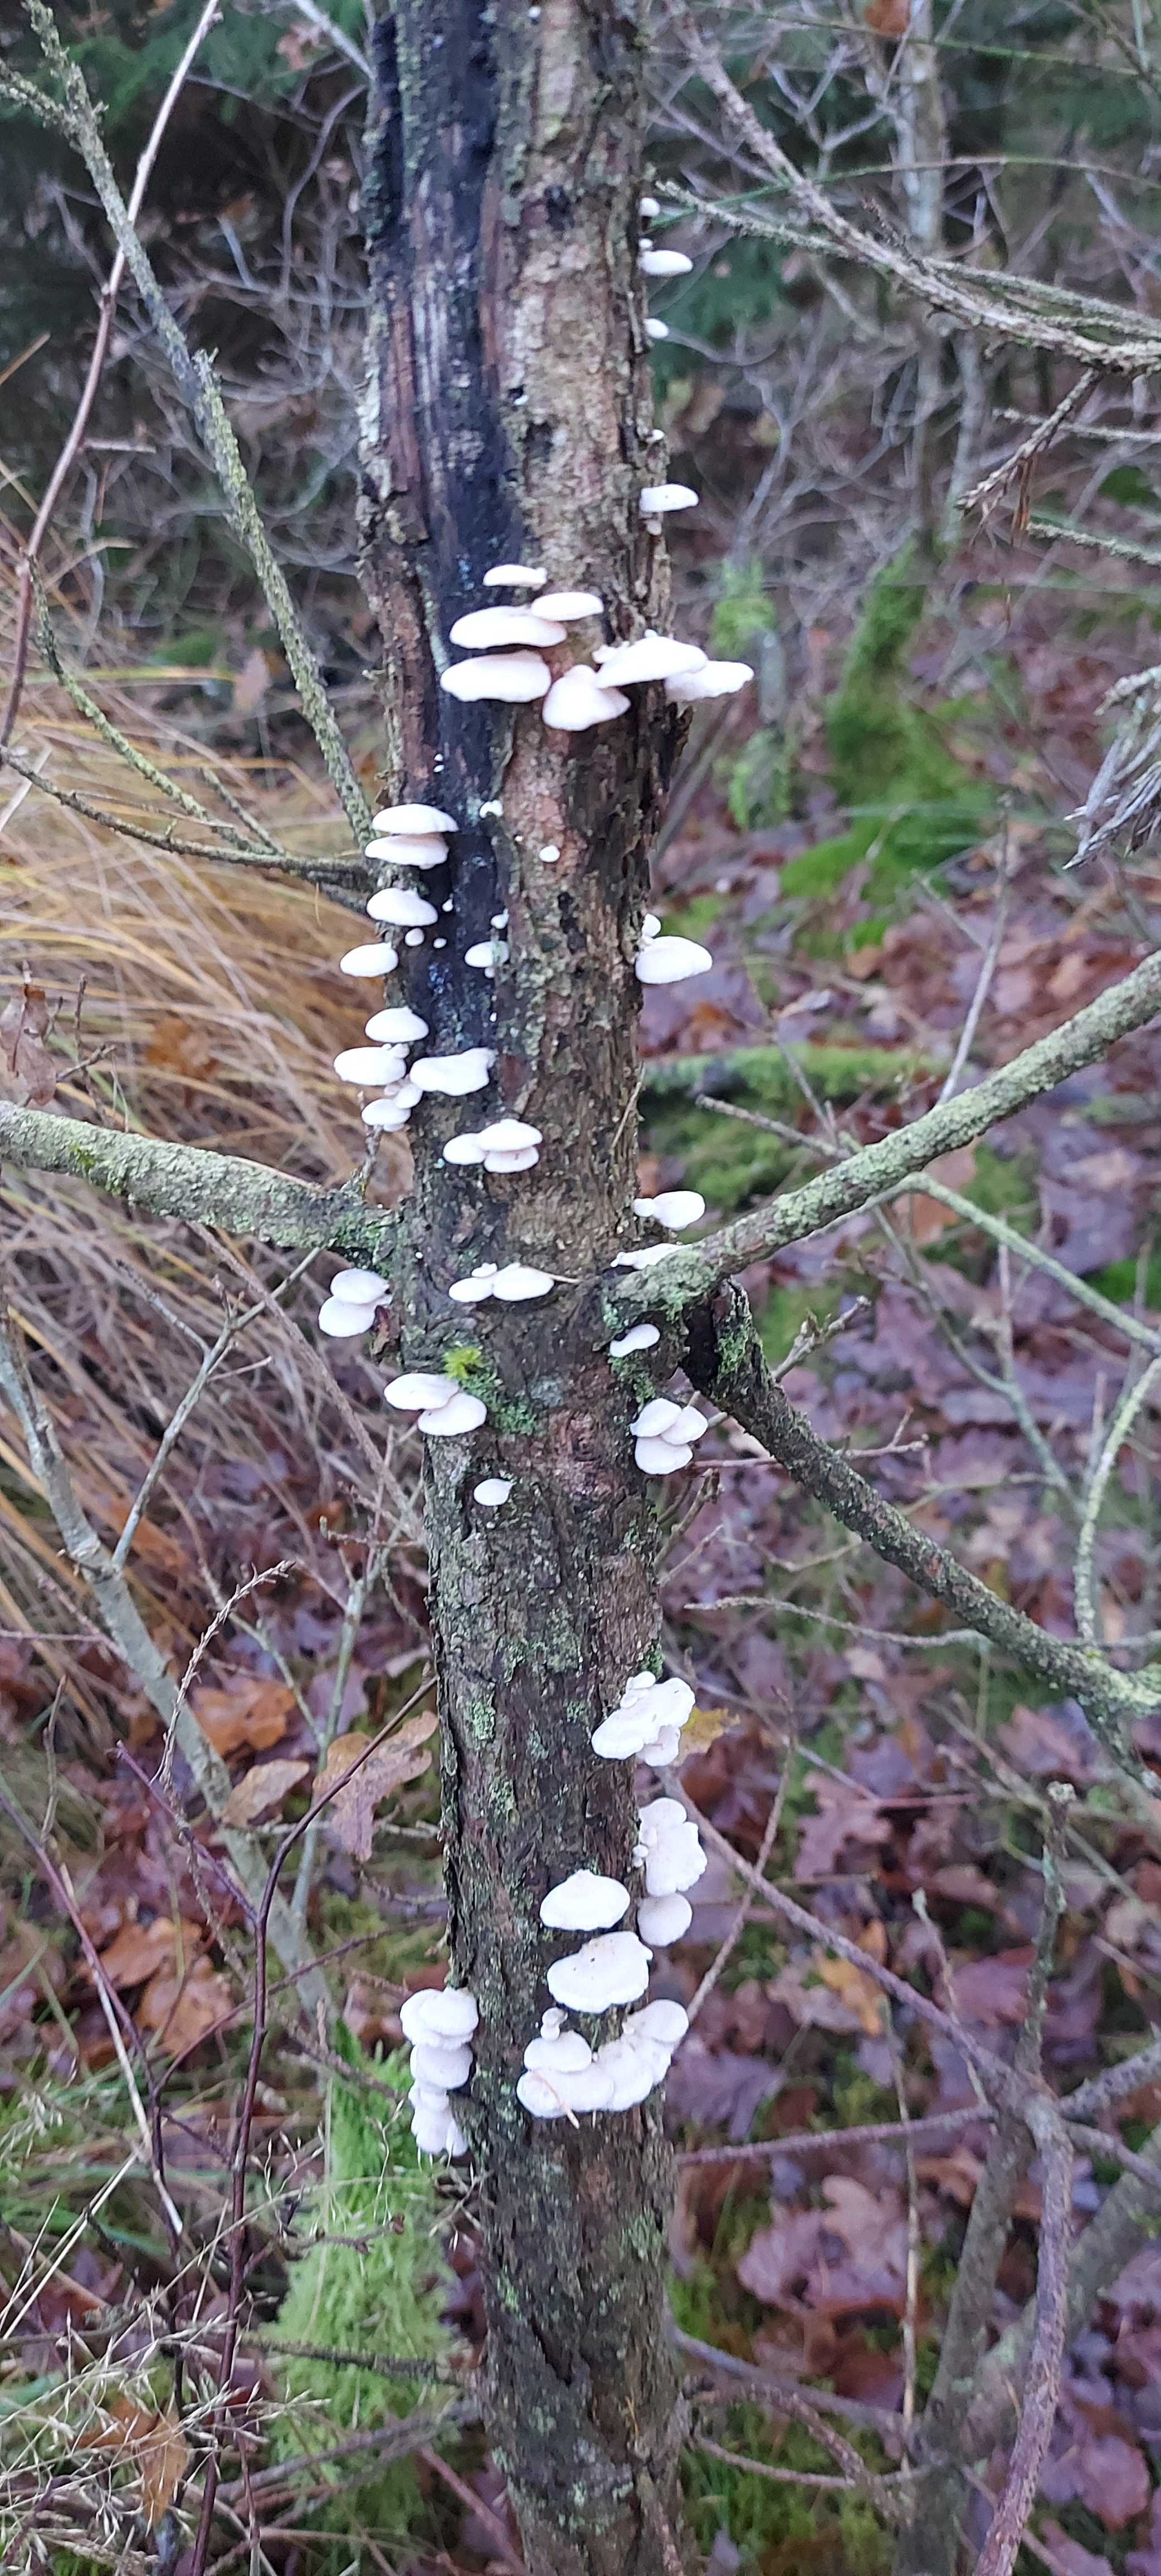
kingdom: Fungi
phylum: Basidiomycota
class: Agaricomycetes
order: Agaricales
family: Mycenaceae
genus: Panellus
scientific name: Panellus mitis
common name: mild epaulethat
